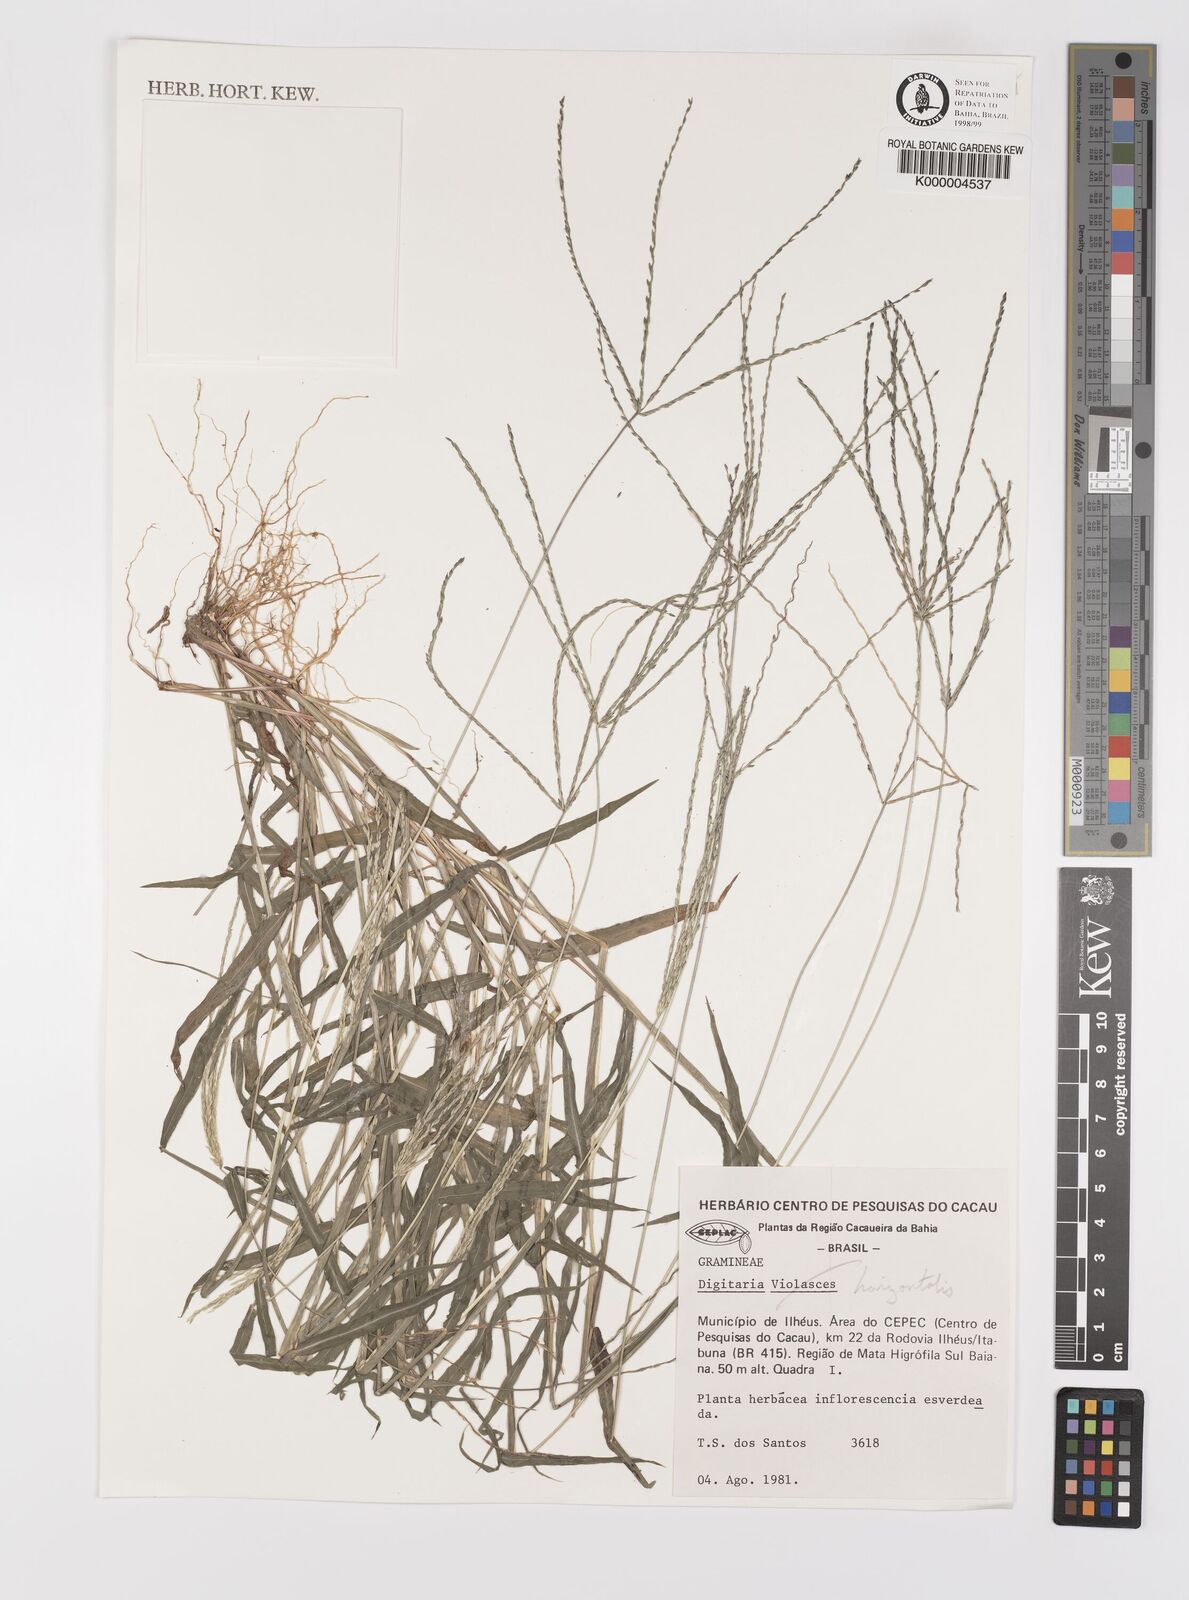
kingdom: Plantae
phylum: Tracheophyta
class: Liliopsida
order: Poales
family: Poaceae
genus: Digitaria
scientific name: Digitaria horizontalis
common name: Jamaican crabgrass
